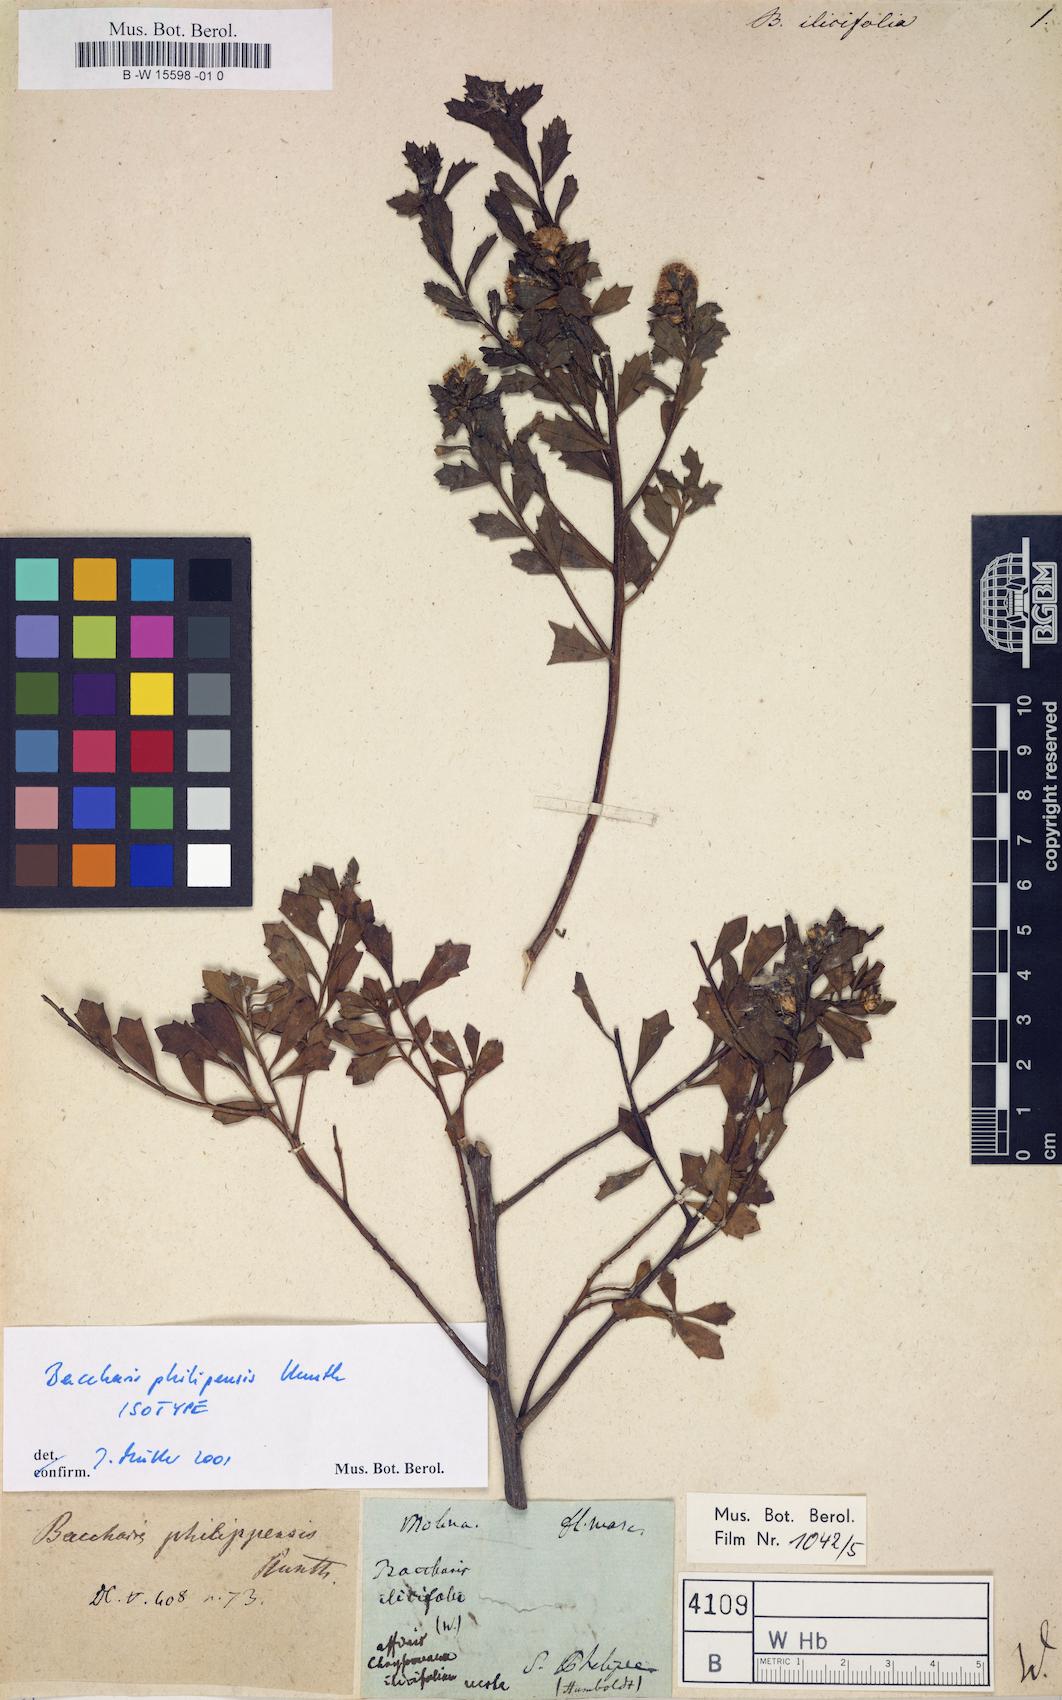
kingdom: Plantae
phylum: Tracheophyta
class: Magnoliopsida
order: Asterales
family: Asteraceae
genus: Brachylaena
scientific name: Brachylaena ilicifolia
